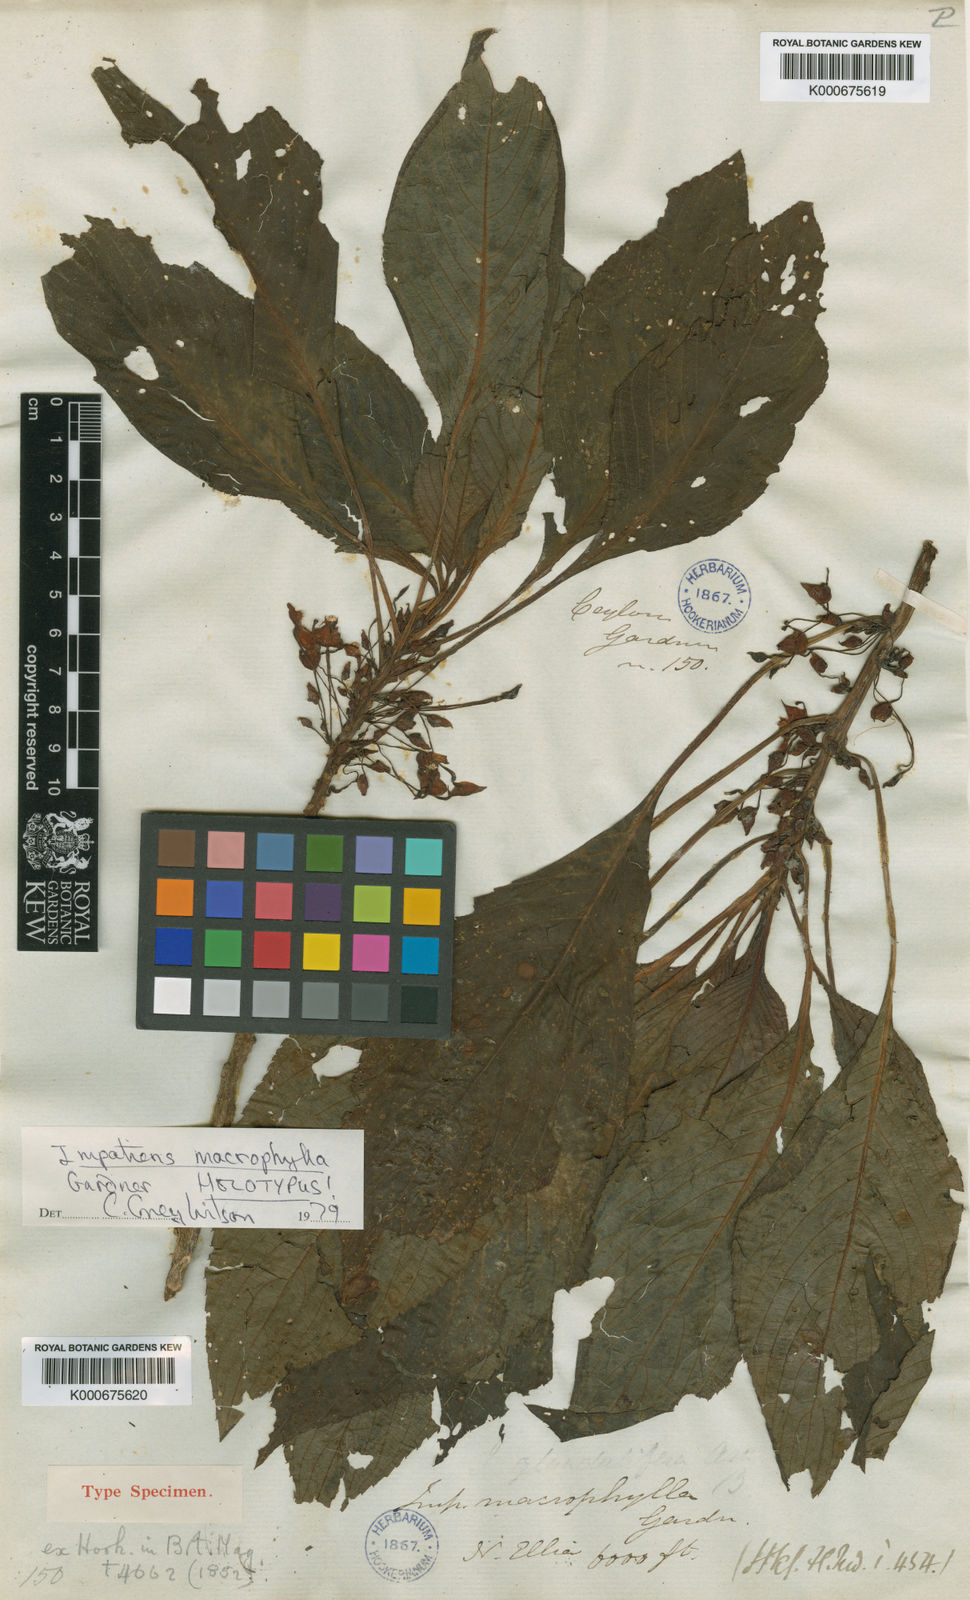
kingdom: Plantae
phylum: Tracheophyta
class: Magnoliopsida
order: Ericales
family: Balsaminaceae
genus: Impatiens
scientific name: Impatiens macrophylla
